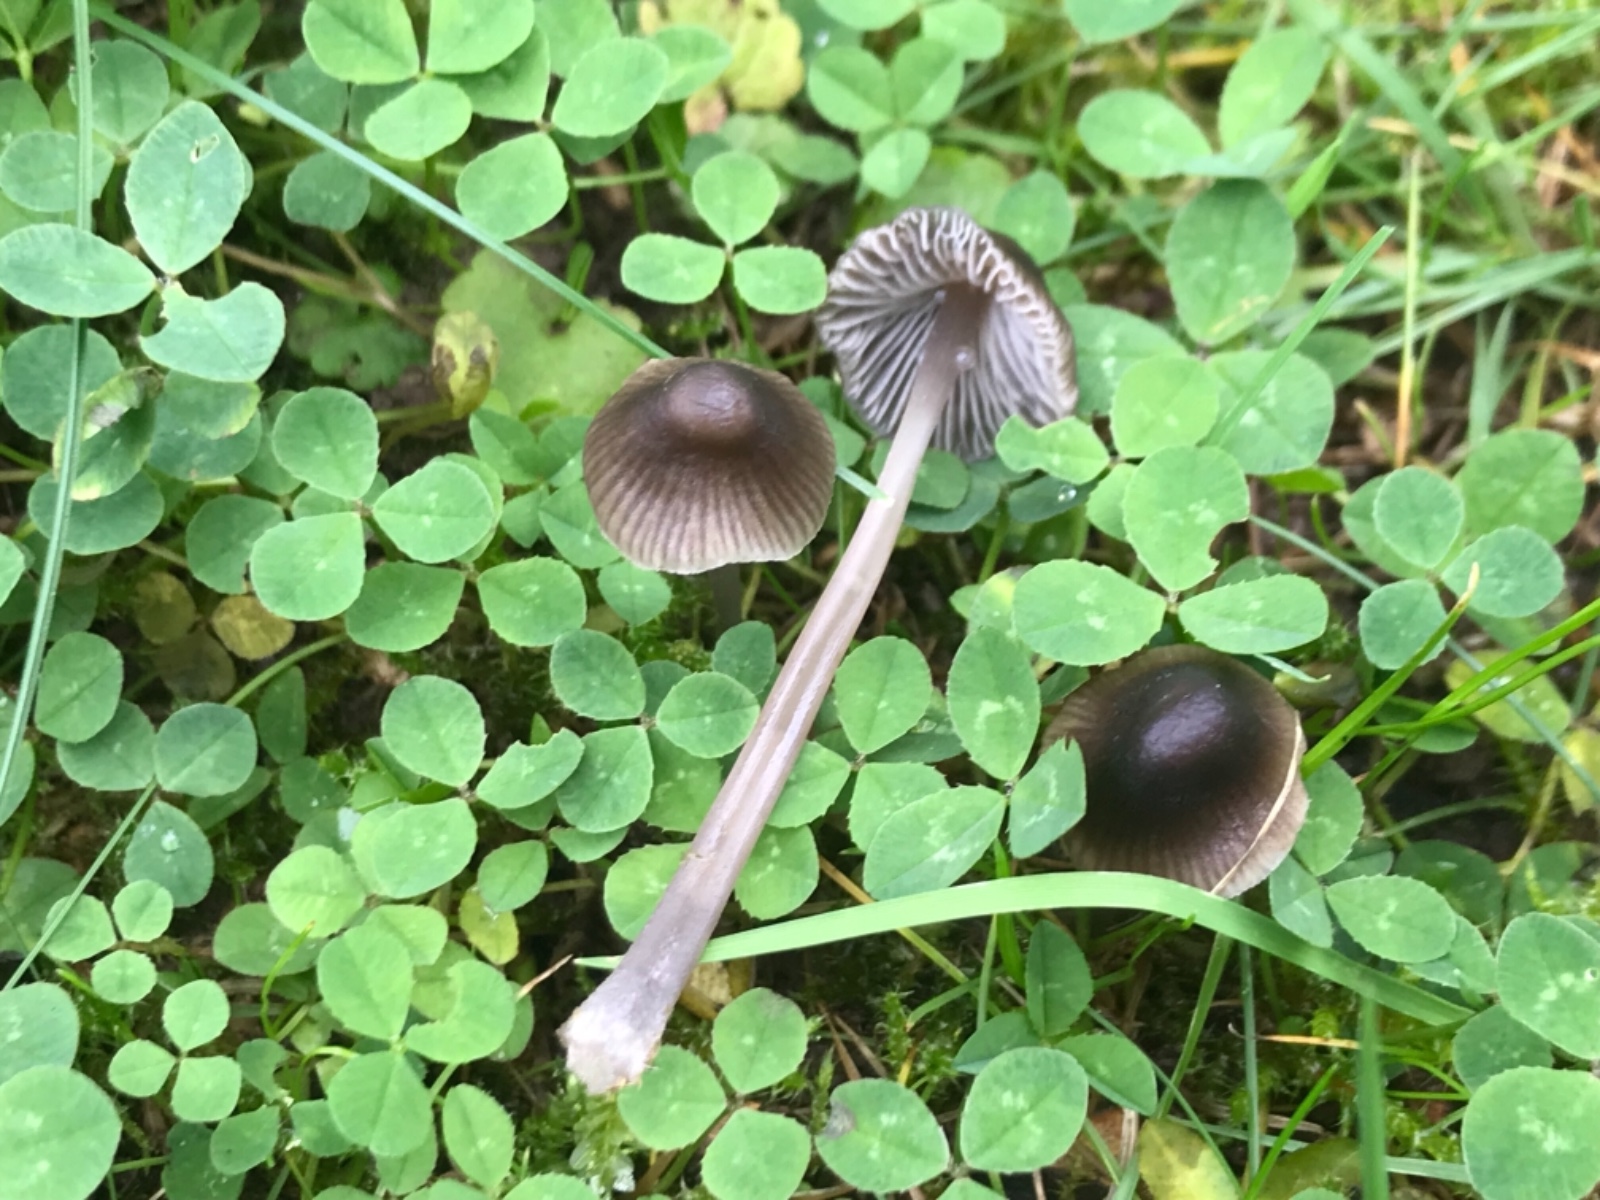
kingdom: Fungi
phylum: Basidiomycota
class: Agaricomycetes
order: Agaricales
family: Mycenaceae
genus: Mycena
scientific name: Mycena
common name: huesvamp
